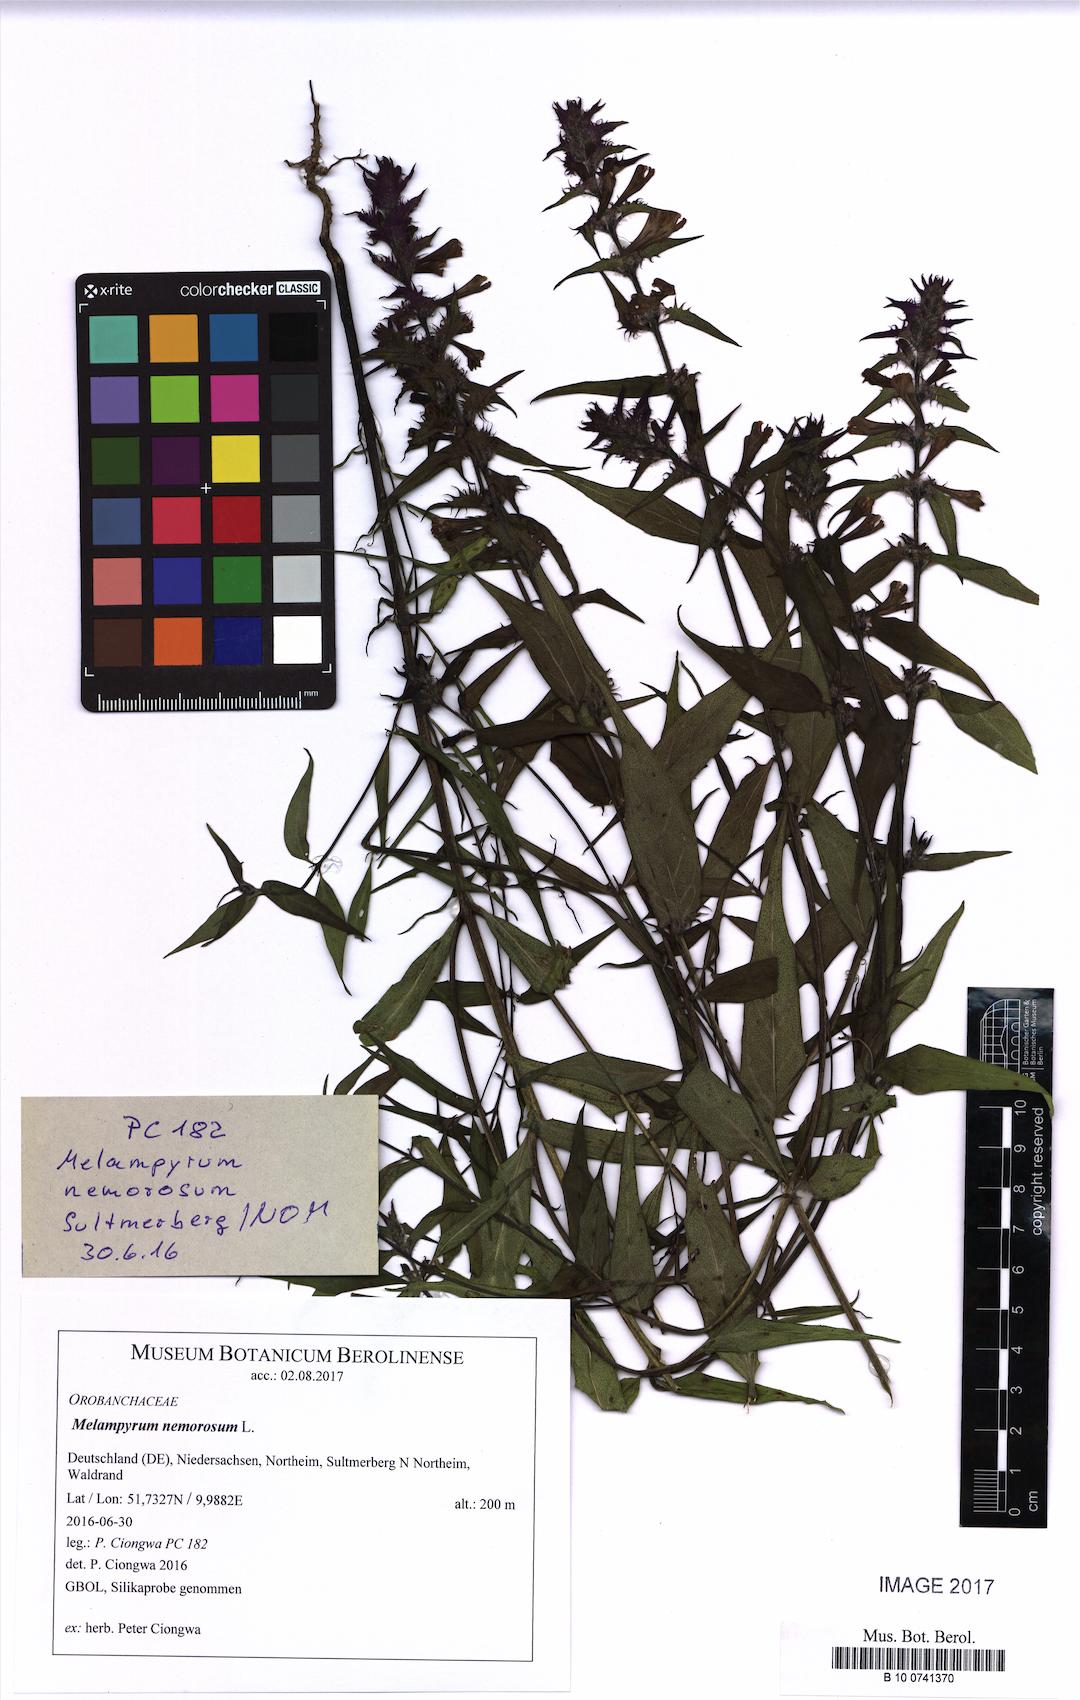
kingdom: Plantae
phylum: Tracheophyta
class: Magnoliopsida
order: Lamiales
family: Orobanchaceae
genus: Melampyrum
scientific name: Melampyrum nemorosum
